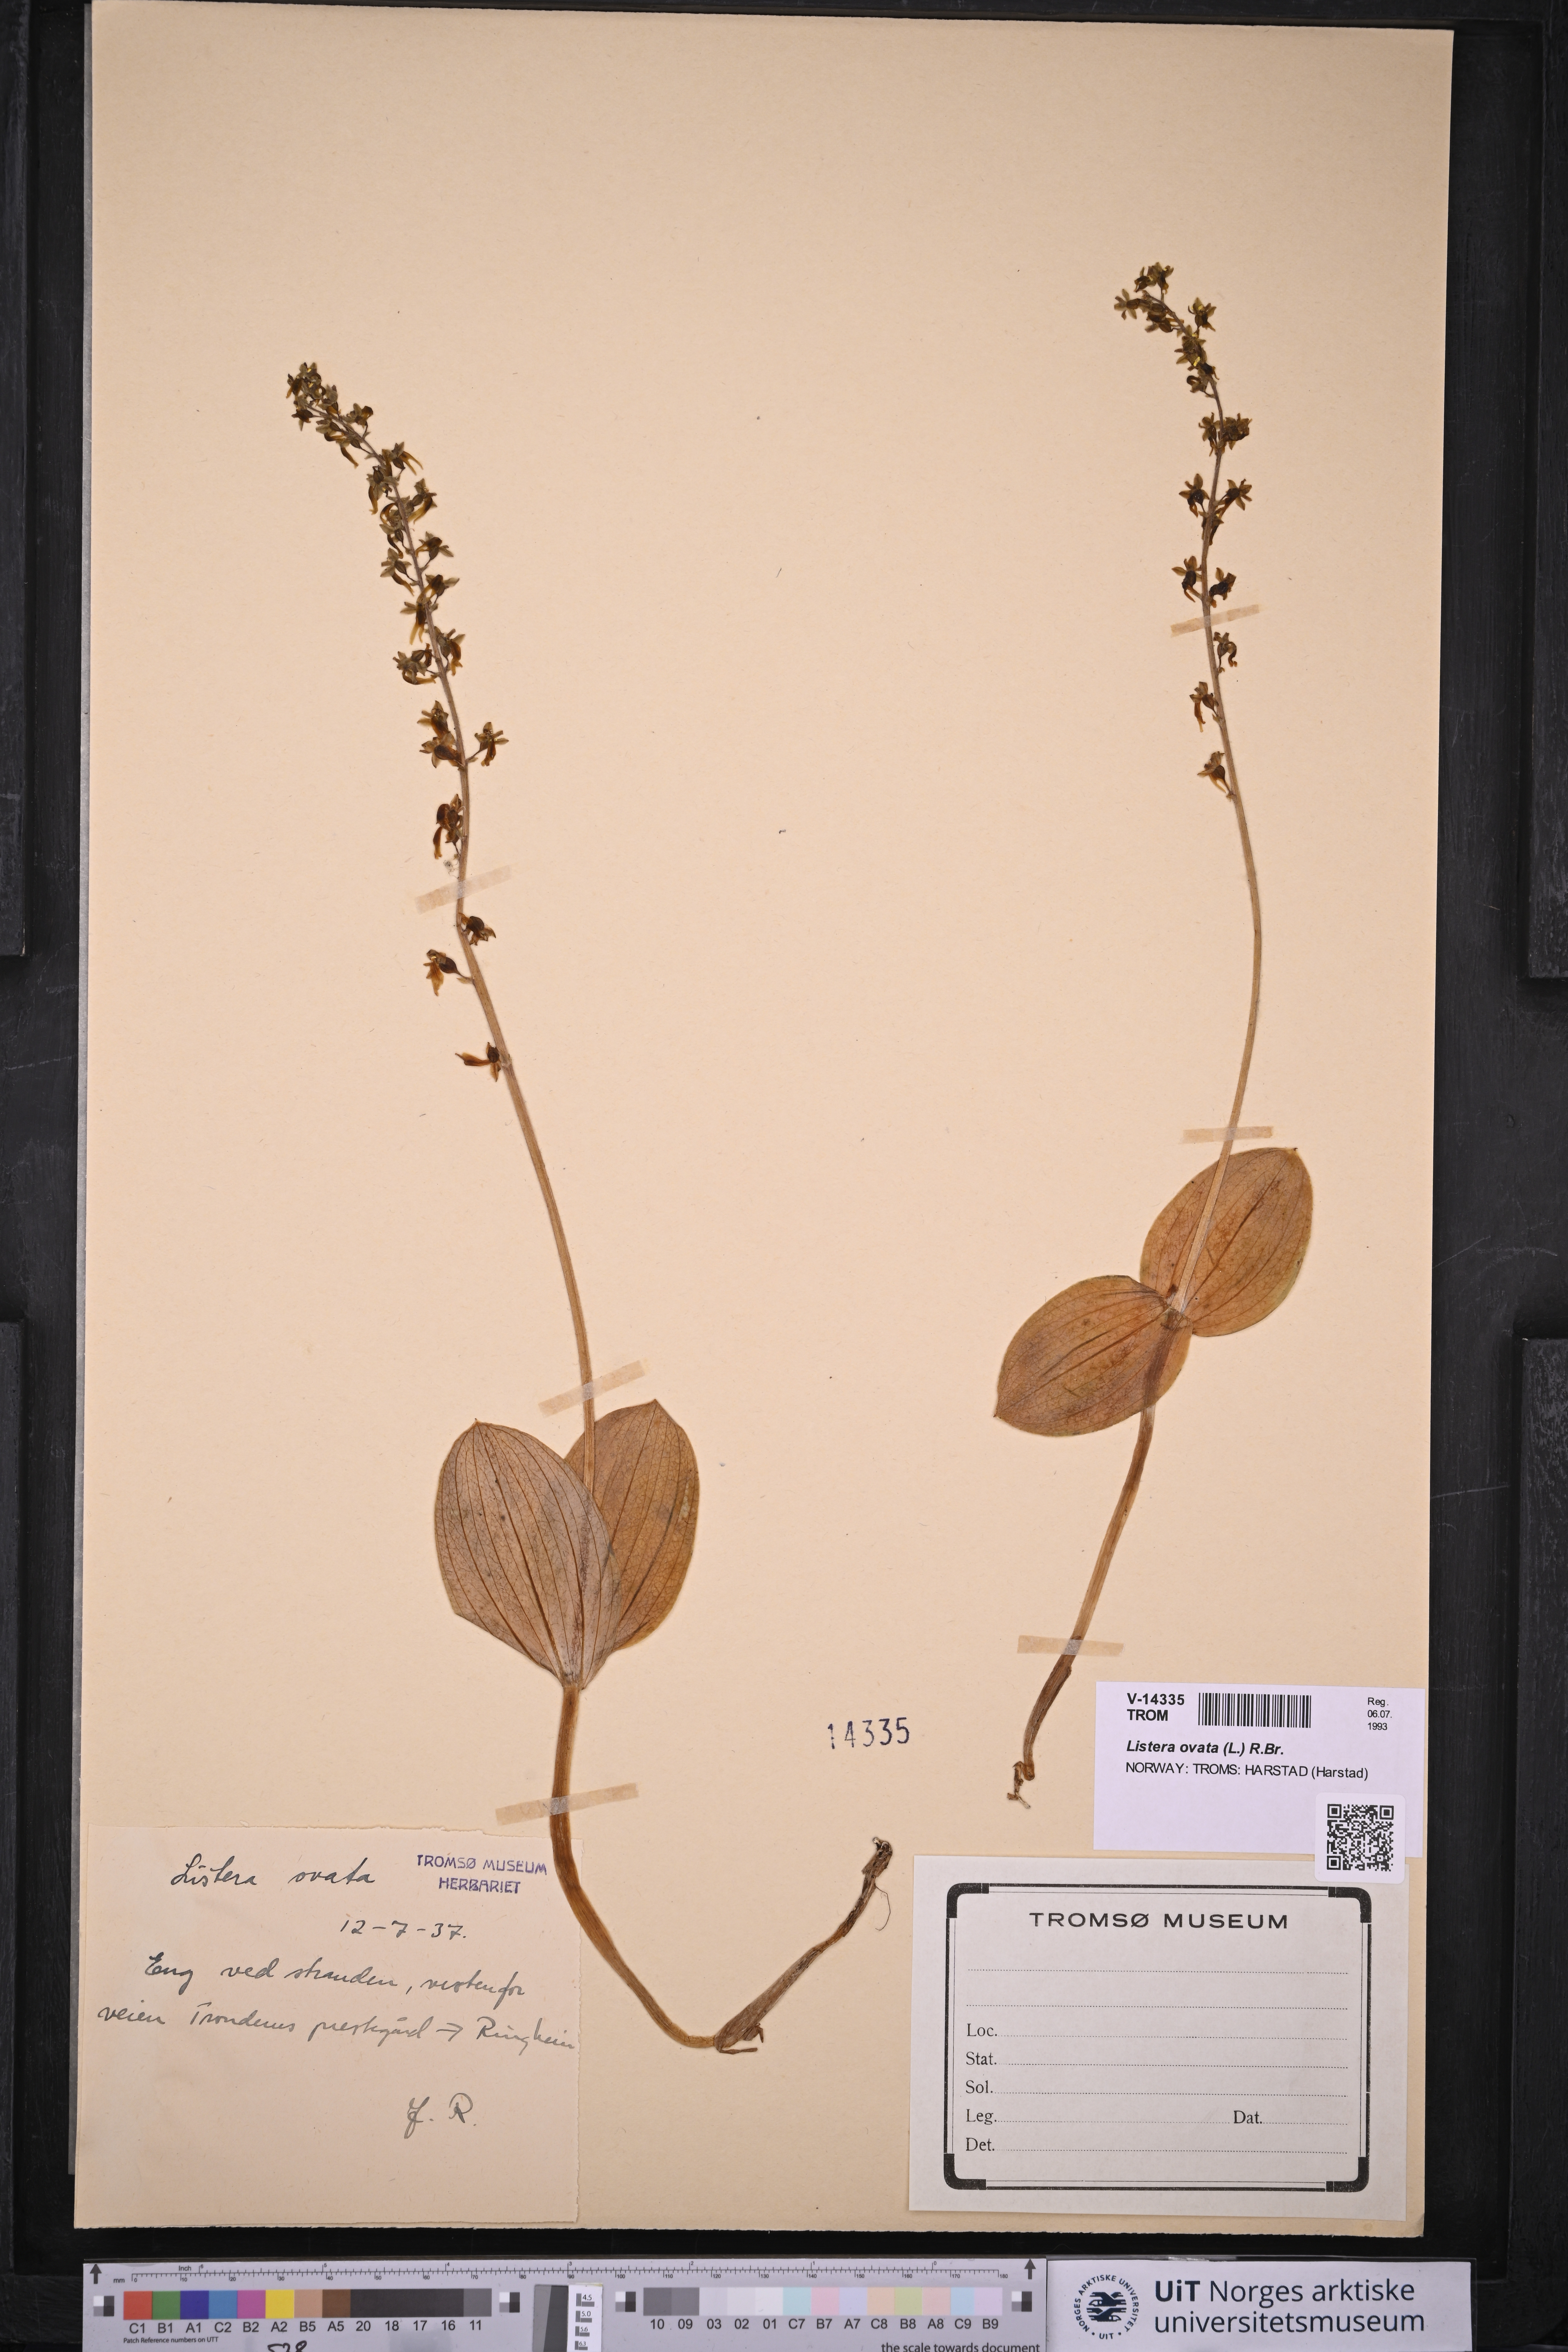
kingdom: Plantae
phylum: Tracheophyta
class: Liliopsida
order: Asparagales
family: Orchidaceae
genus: Neottia
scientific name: Neottia ovata
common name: Common twayblade
